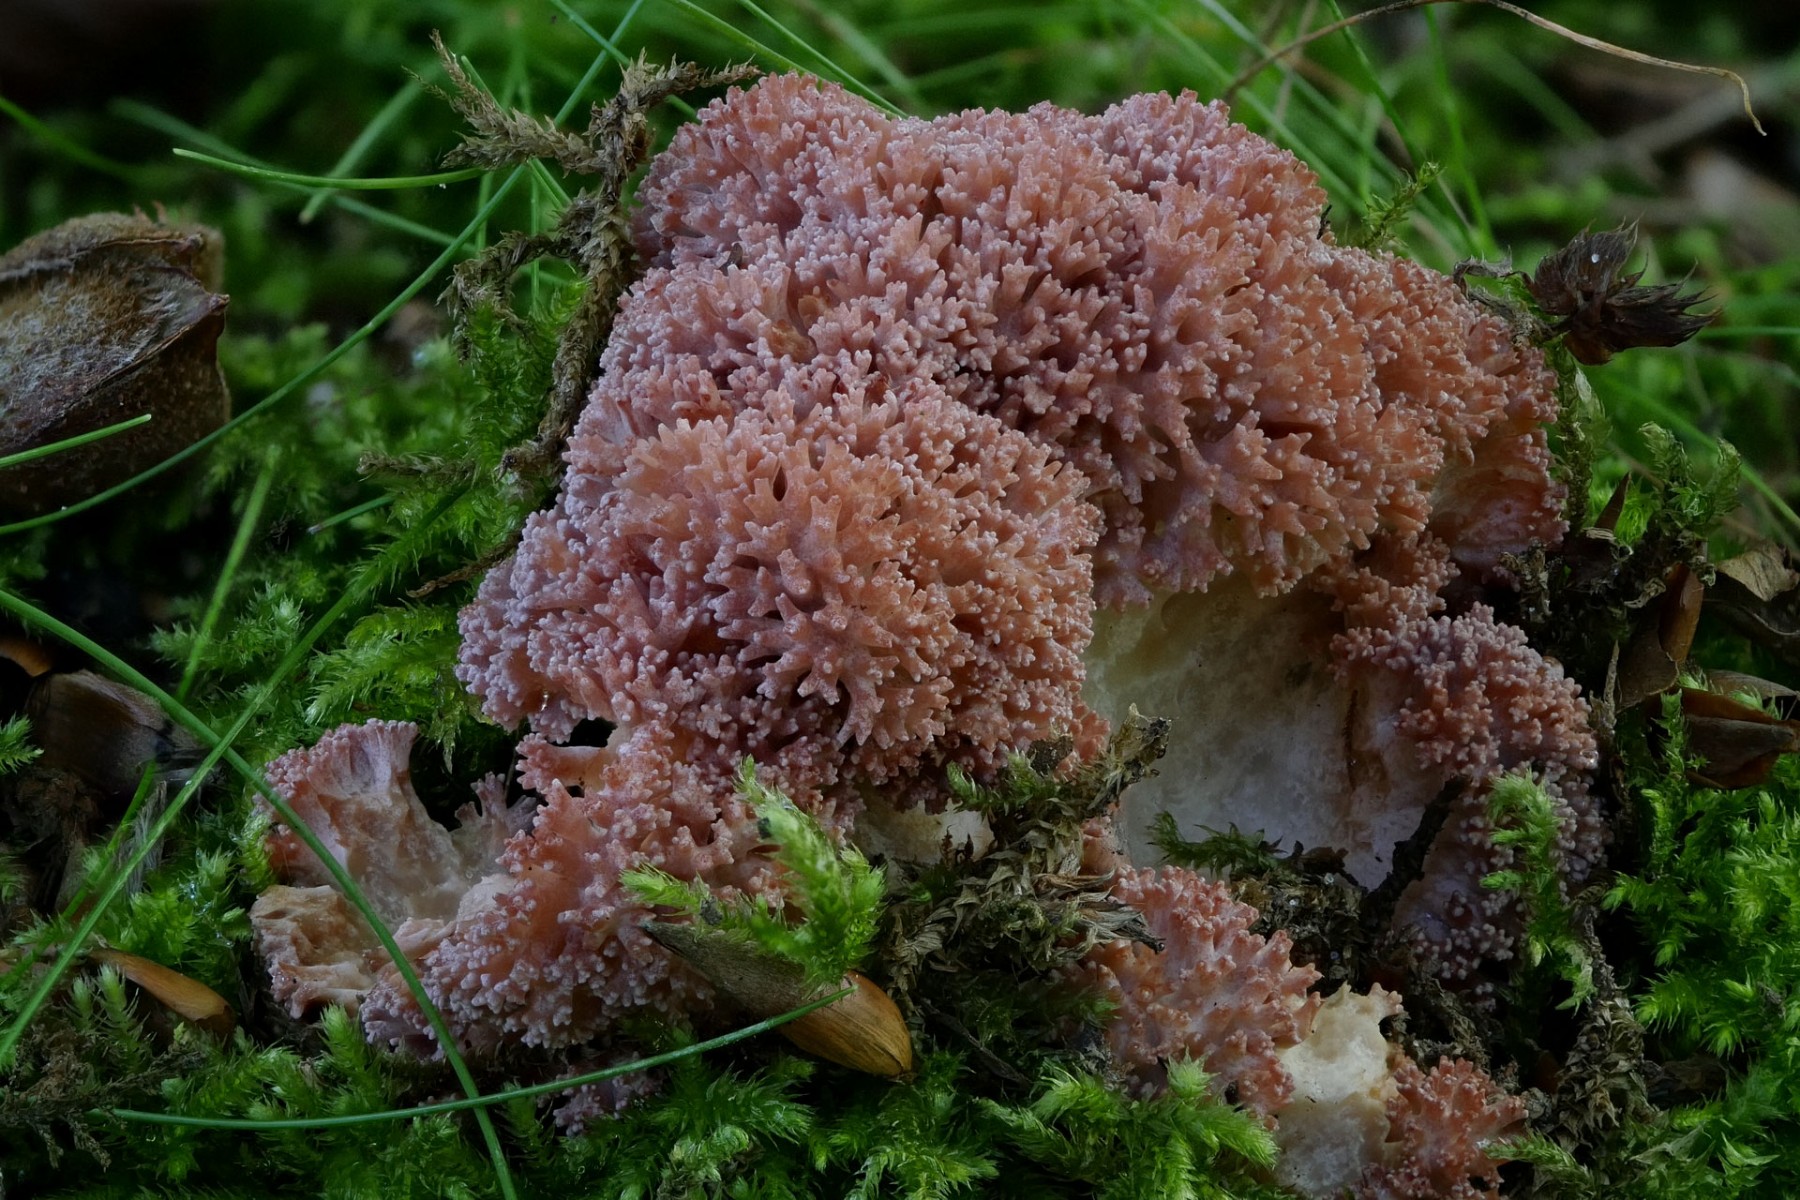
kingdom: Fungi
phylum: Basidiomycota
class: Agaricomycetes
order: Gomphales
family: Gomphaceae
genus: Ramaria
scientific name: Ramaria botrytis
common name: drue-koralsvamp
